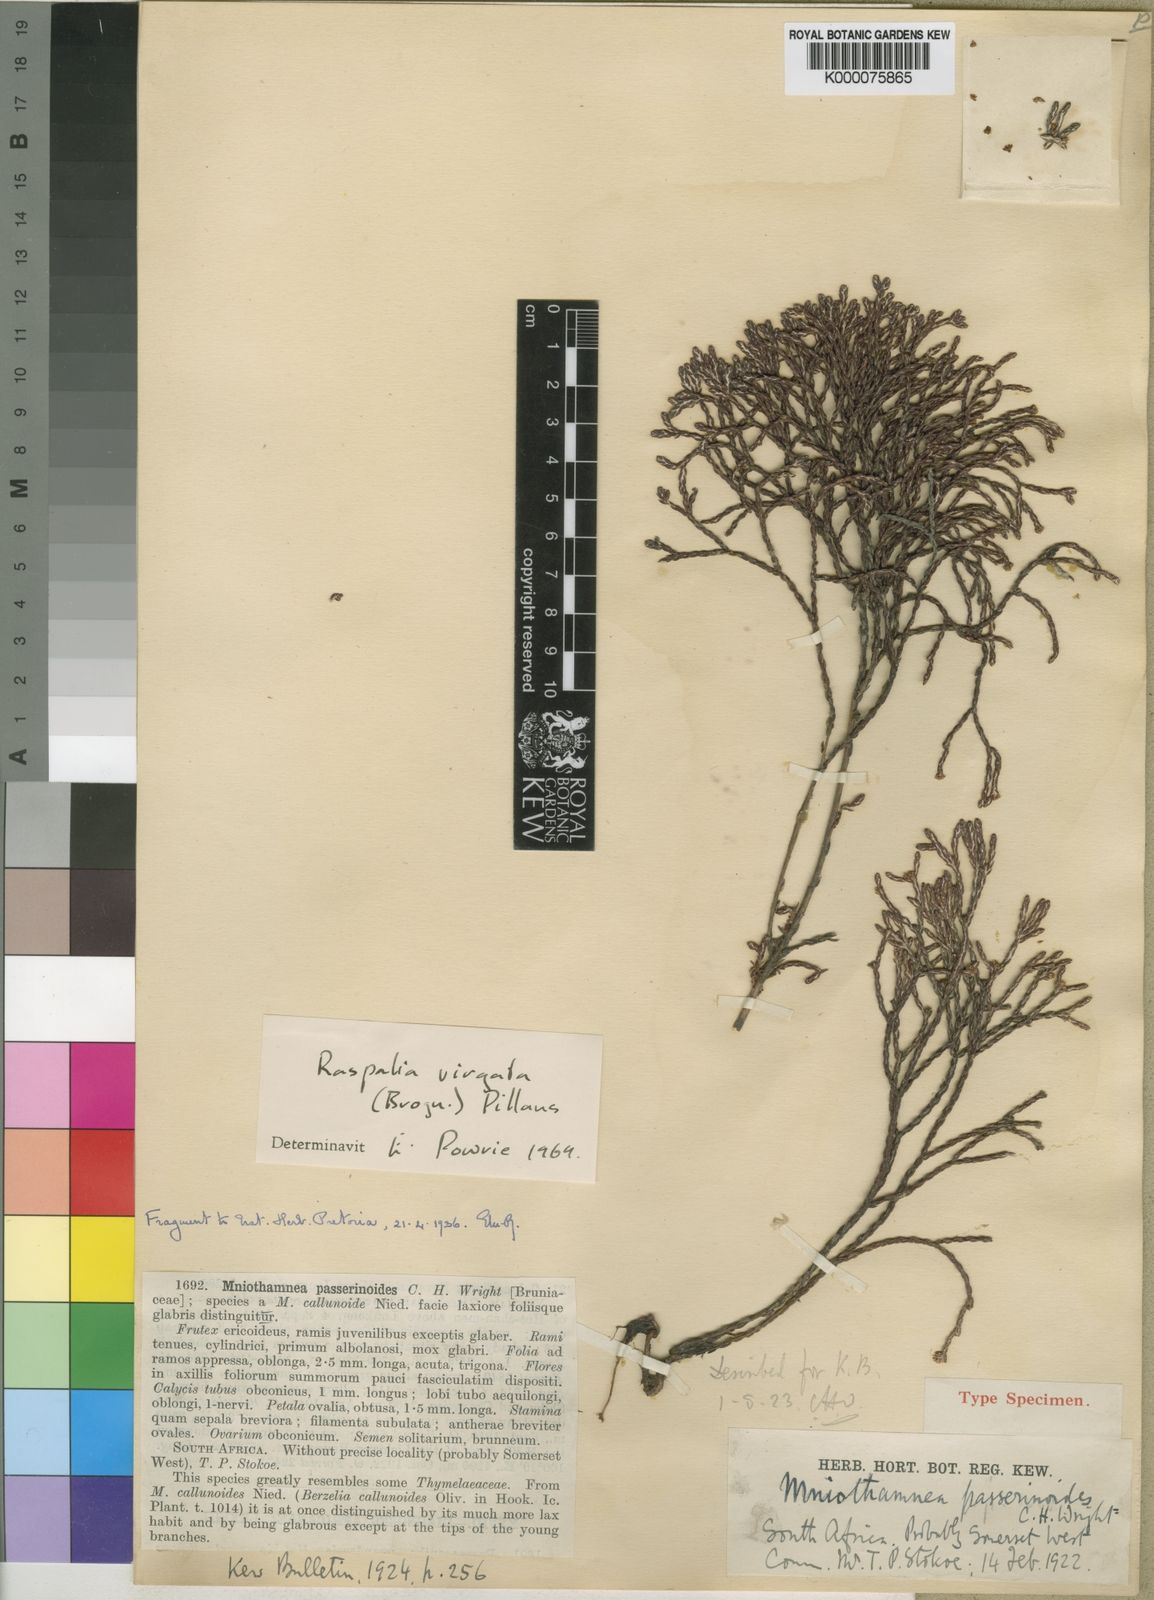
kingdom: Plantae
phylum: Tracheophyta
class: Magnoliopsida
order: Bruniales
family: Bruniaceae
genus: Brunia
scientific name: Brunia virgata
